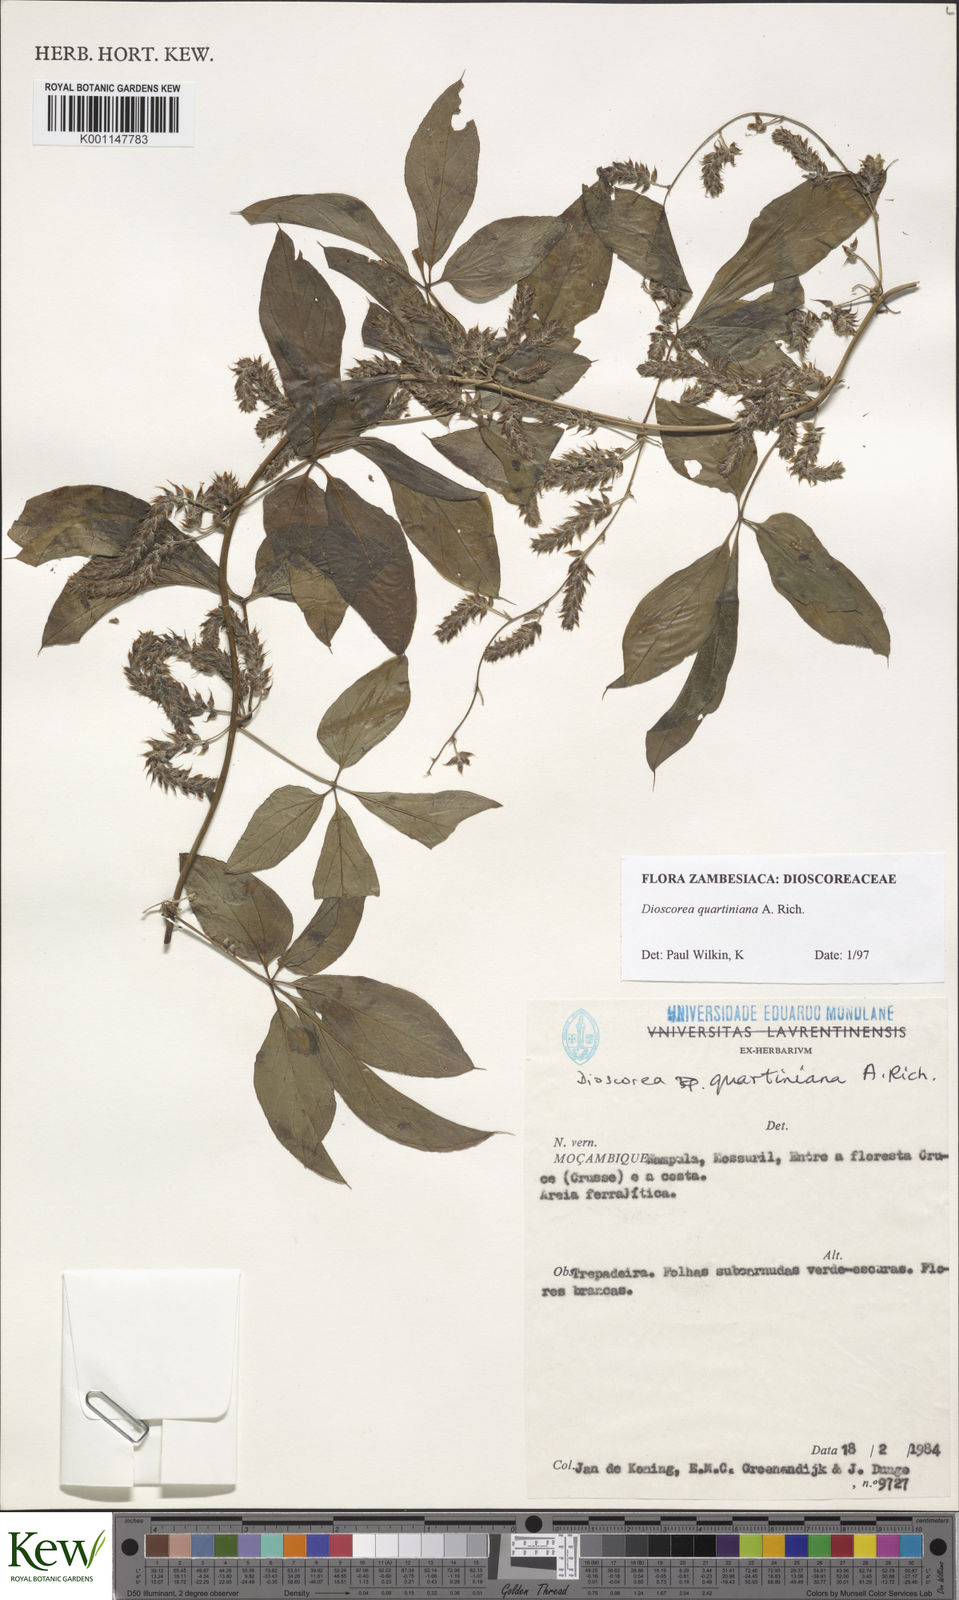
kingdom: Plantae
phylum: Tracheophyta
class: Liliopsida
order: Dioscoreales
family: Dioscoreaceae
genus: Dioscorea
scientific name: Dioscorea quartiniana
